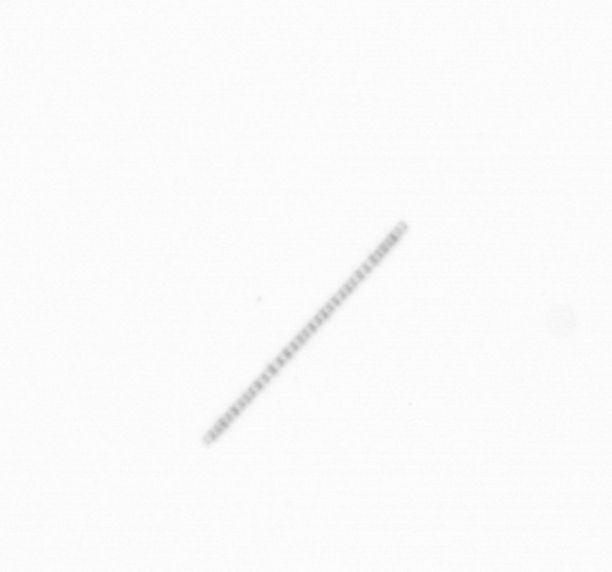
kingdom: Chromista
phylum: Ochrophyta
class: Bacillariophyceae
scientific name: Bacillariophyceae
